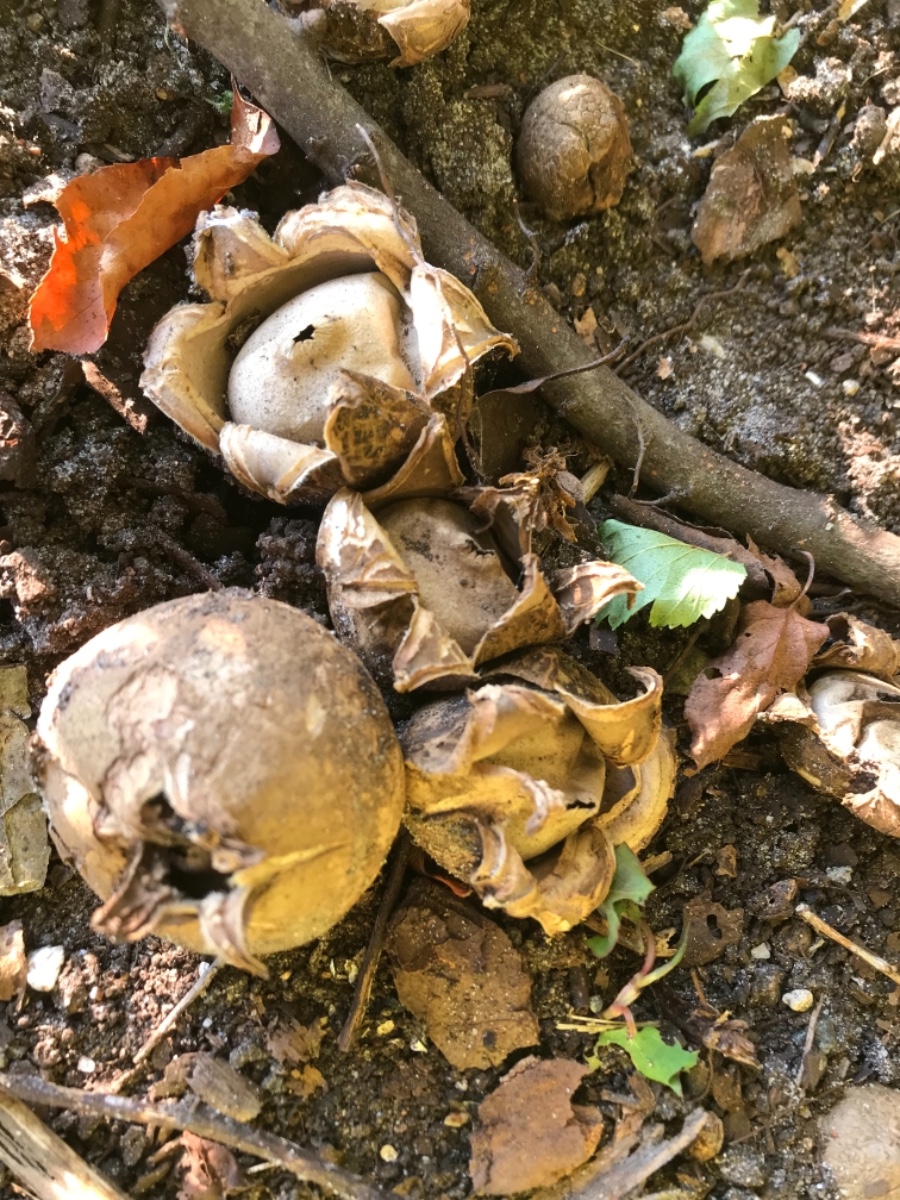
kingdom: Fungi
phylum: Basidiomycota
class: Agaricomycetes
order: Geastrales
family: Geastraceae
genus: Geastrum
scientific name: Geastrum michelianum
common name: kødet stjernebold
